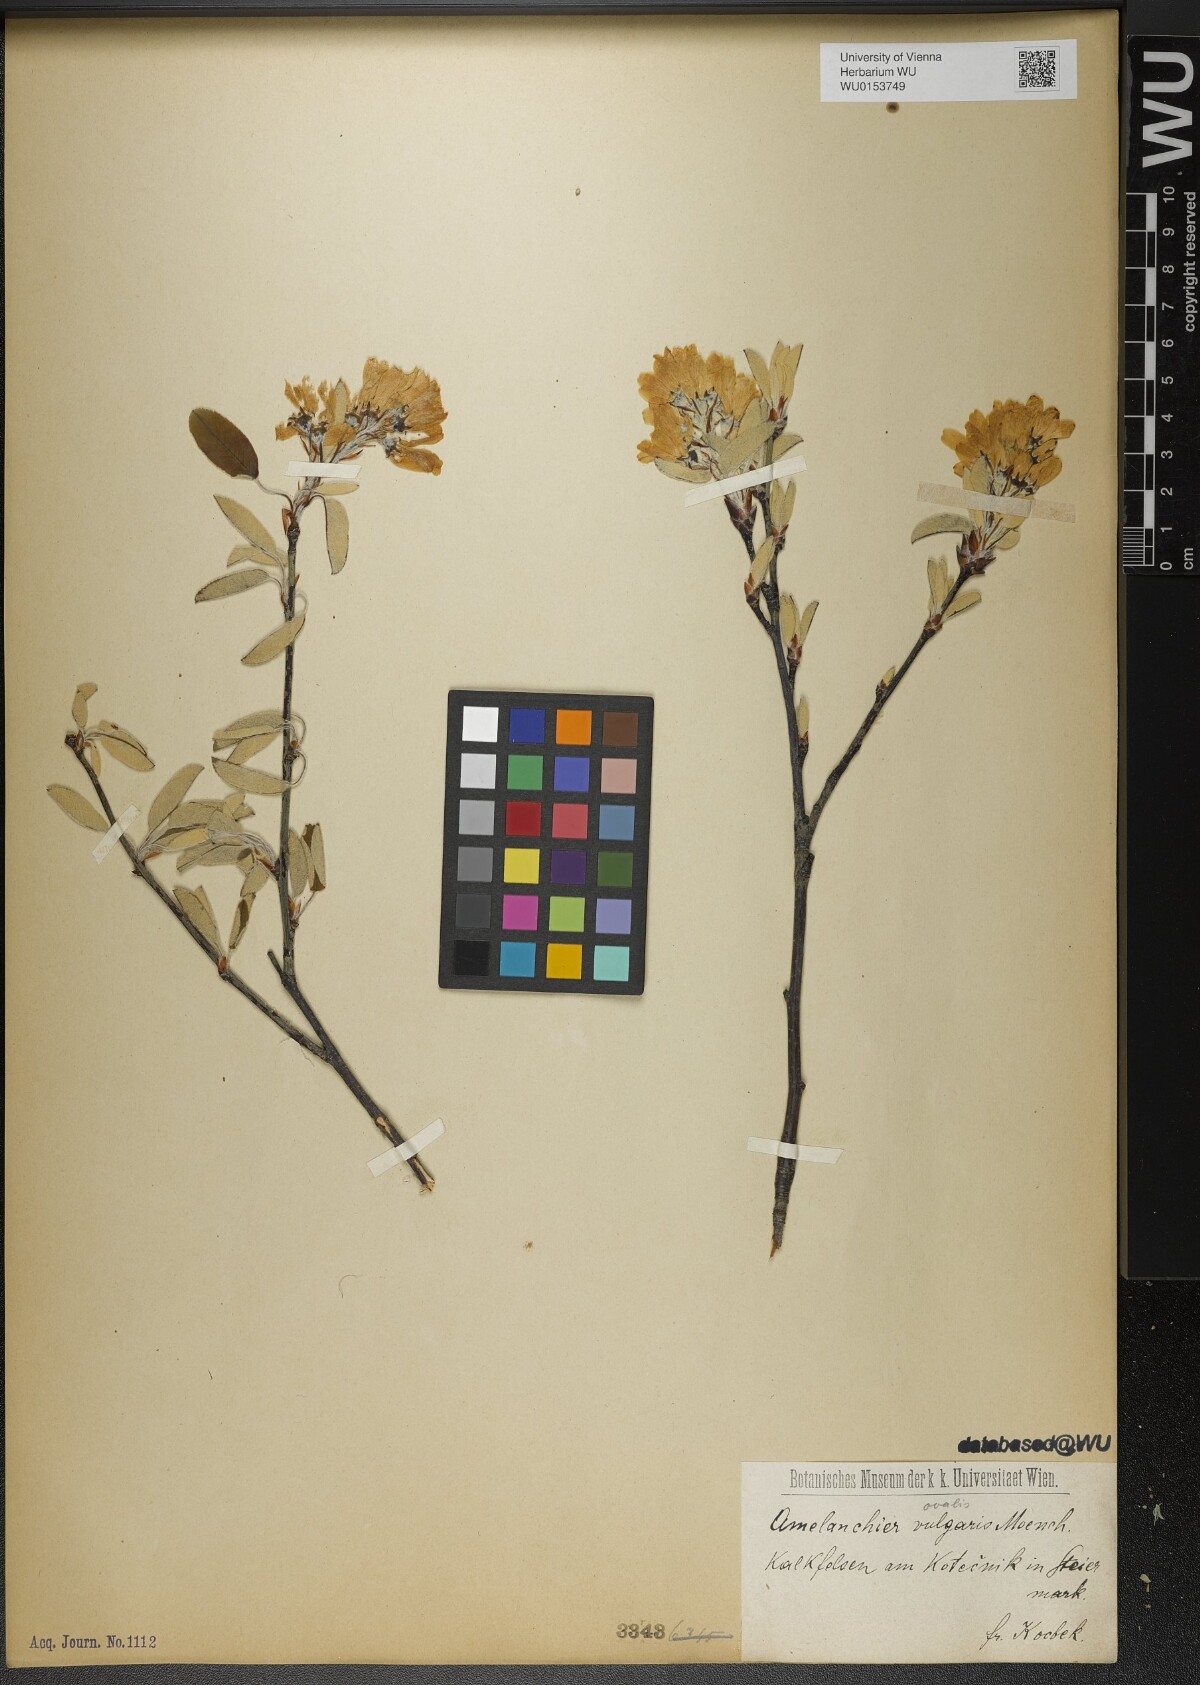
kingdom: Plantae
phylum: Tracheophyta
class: Magnoliopsida
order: Rosales
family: Rosaceae
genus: Amelanchier
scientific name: Amelanchier ovalis
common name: Serviceberry
